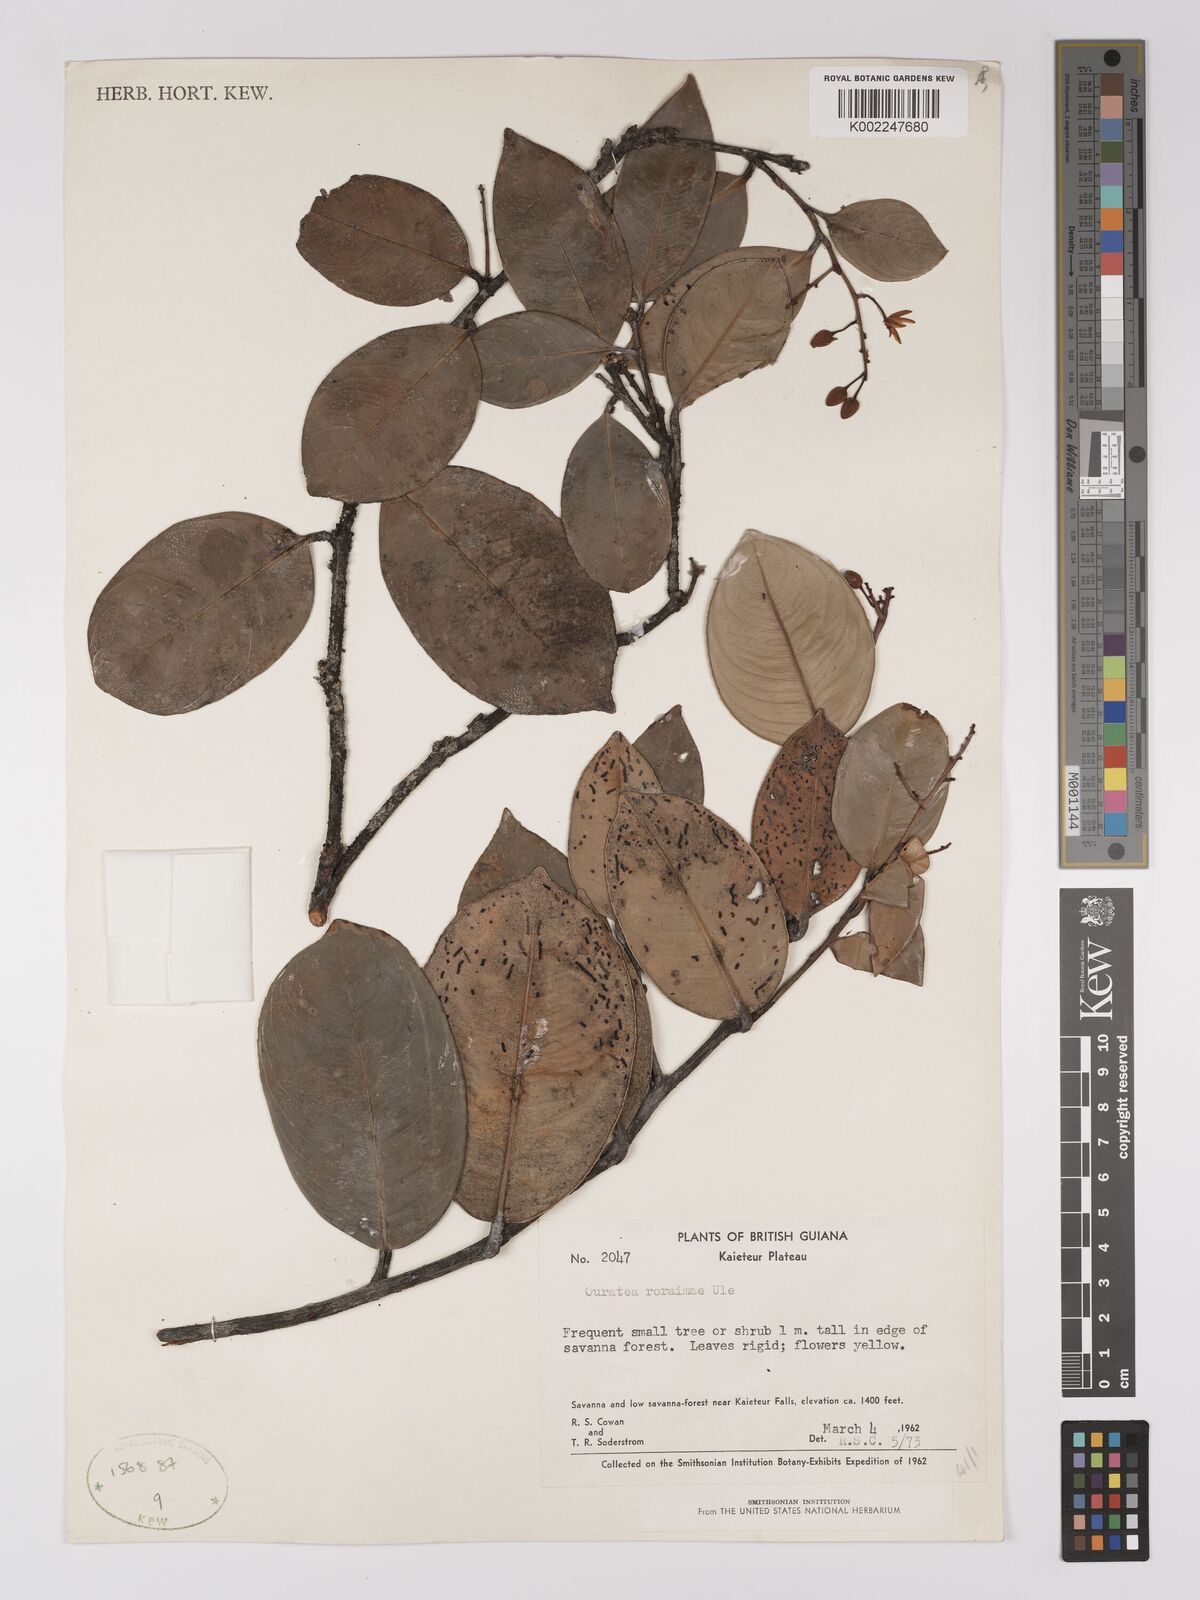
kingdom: Plantae
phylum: Tracheophyta
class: Magnoliopsida
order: Malpighiales
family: Ochnaceae
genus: Ouratea
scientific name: Ouratea roraimae
